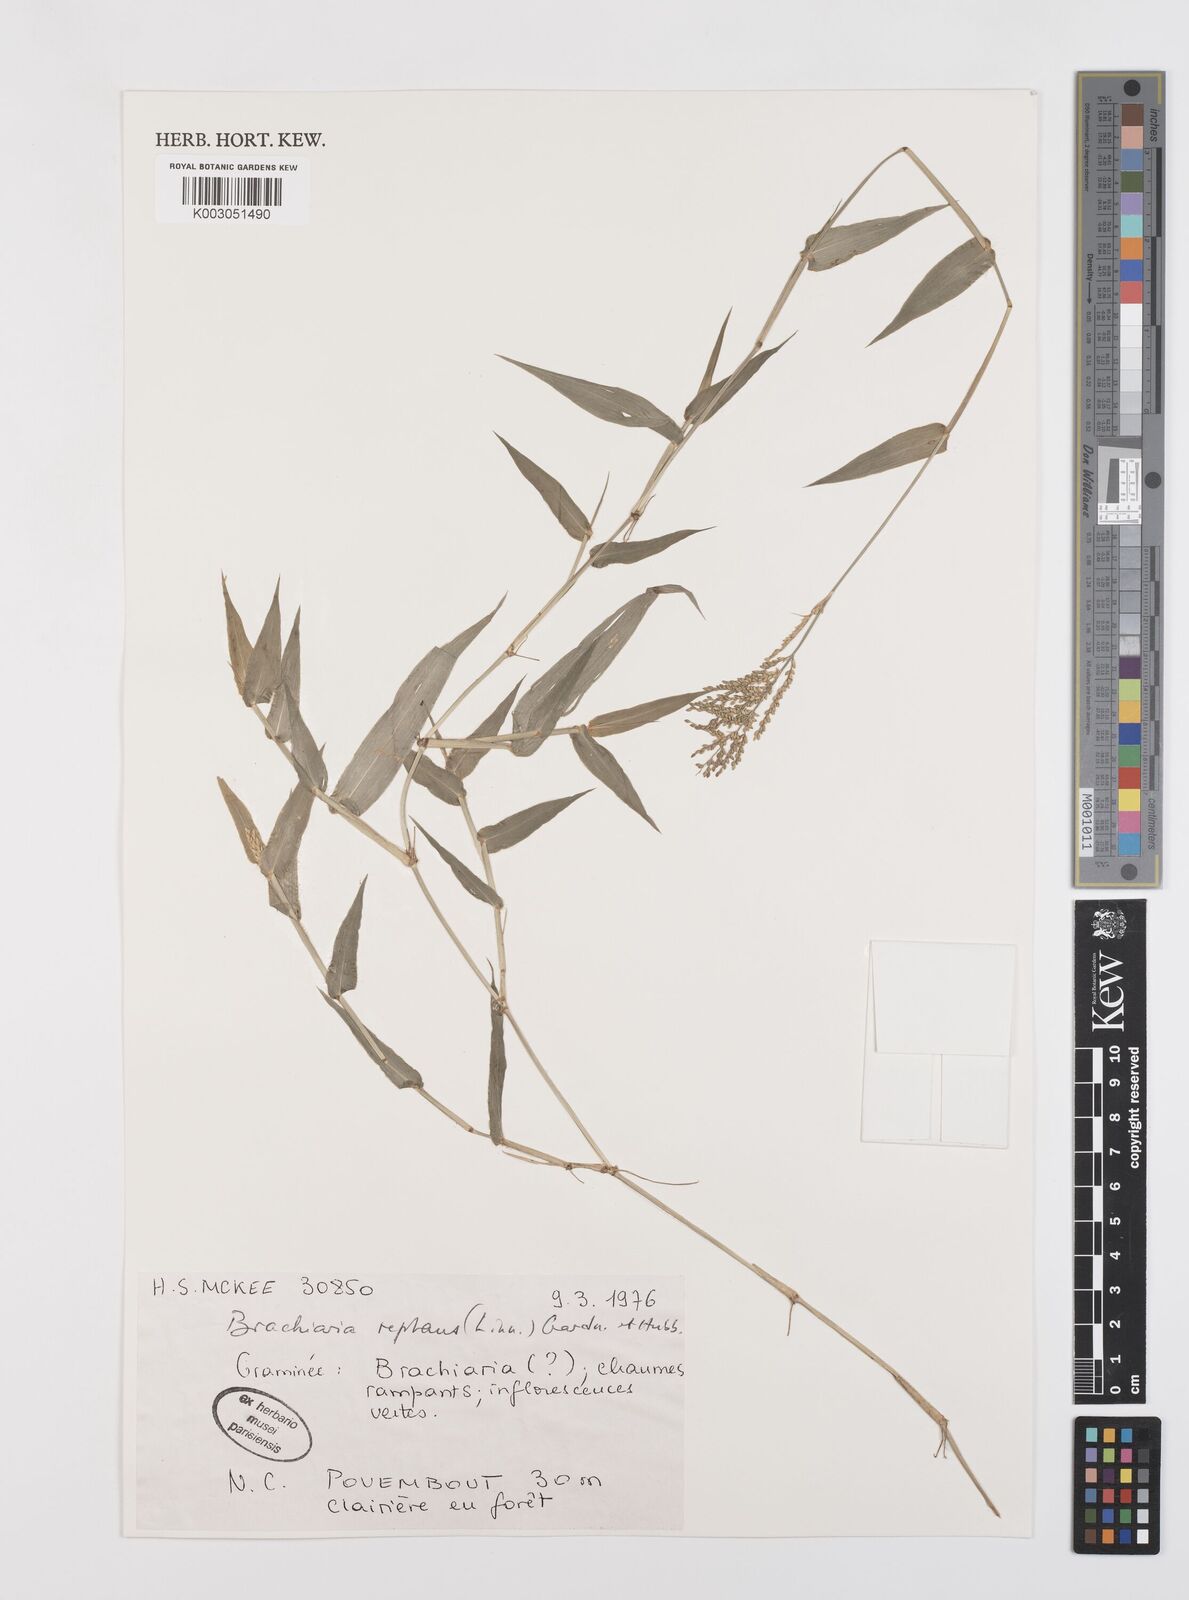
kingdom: Plantae
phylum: Tracheophyta
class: Liliopsida
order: Poales
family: Poaceae
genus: Urochloa
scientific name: Urochloa reptans
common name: Sprawling signalgrass
